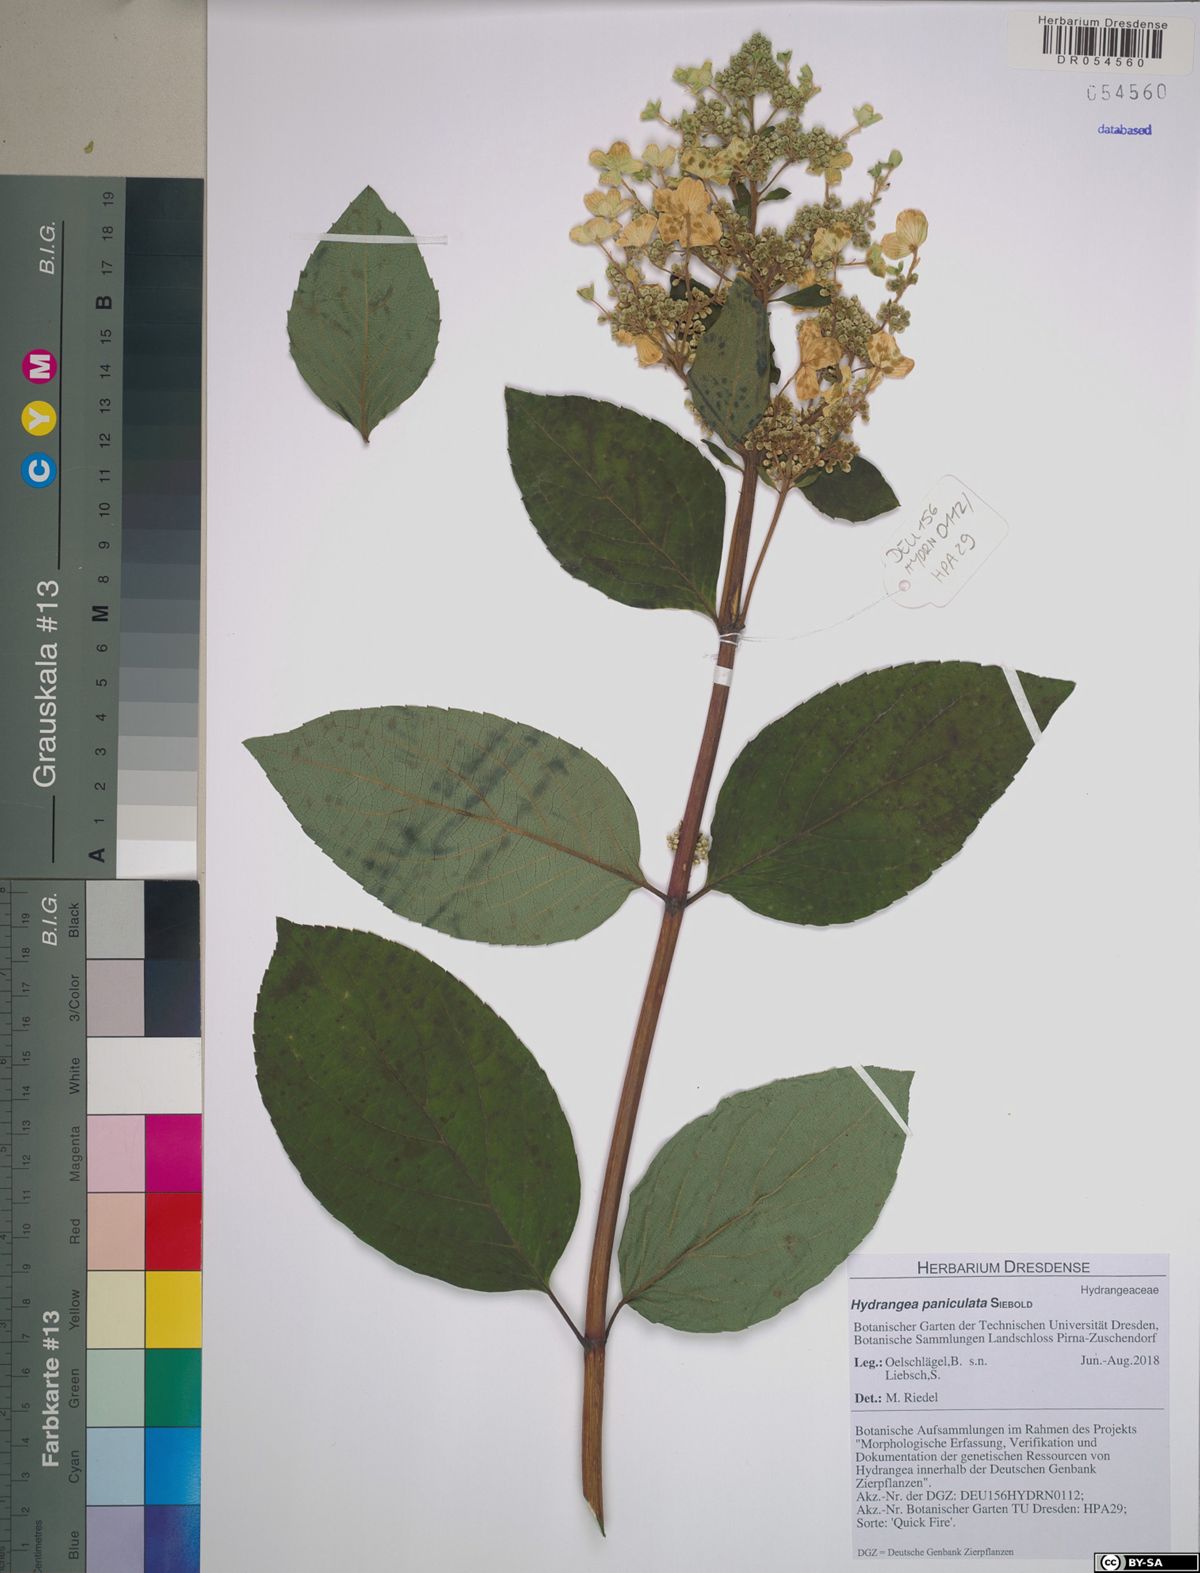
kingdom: Plantae
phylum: Tracheophyta
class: Magnoliopsida
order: Cornales
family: Hydrangeaceae
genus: Hydrangea
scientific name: Hydrangea paniculata
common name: Panicled hydrangea
